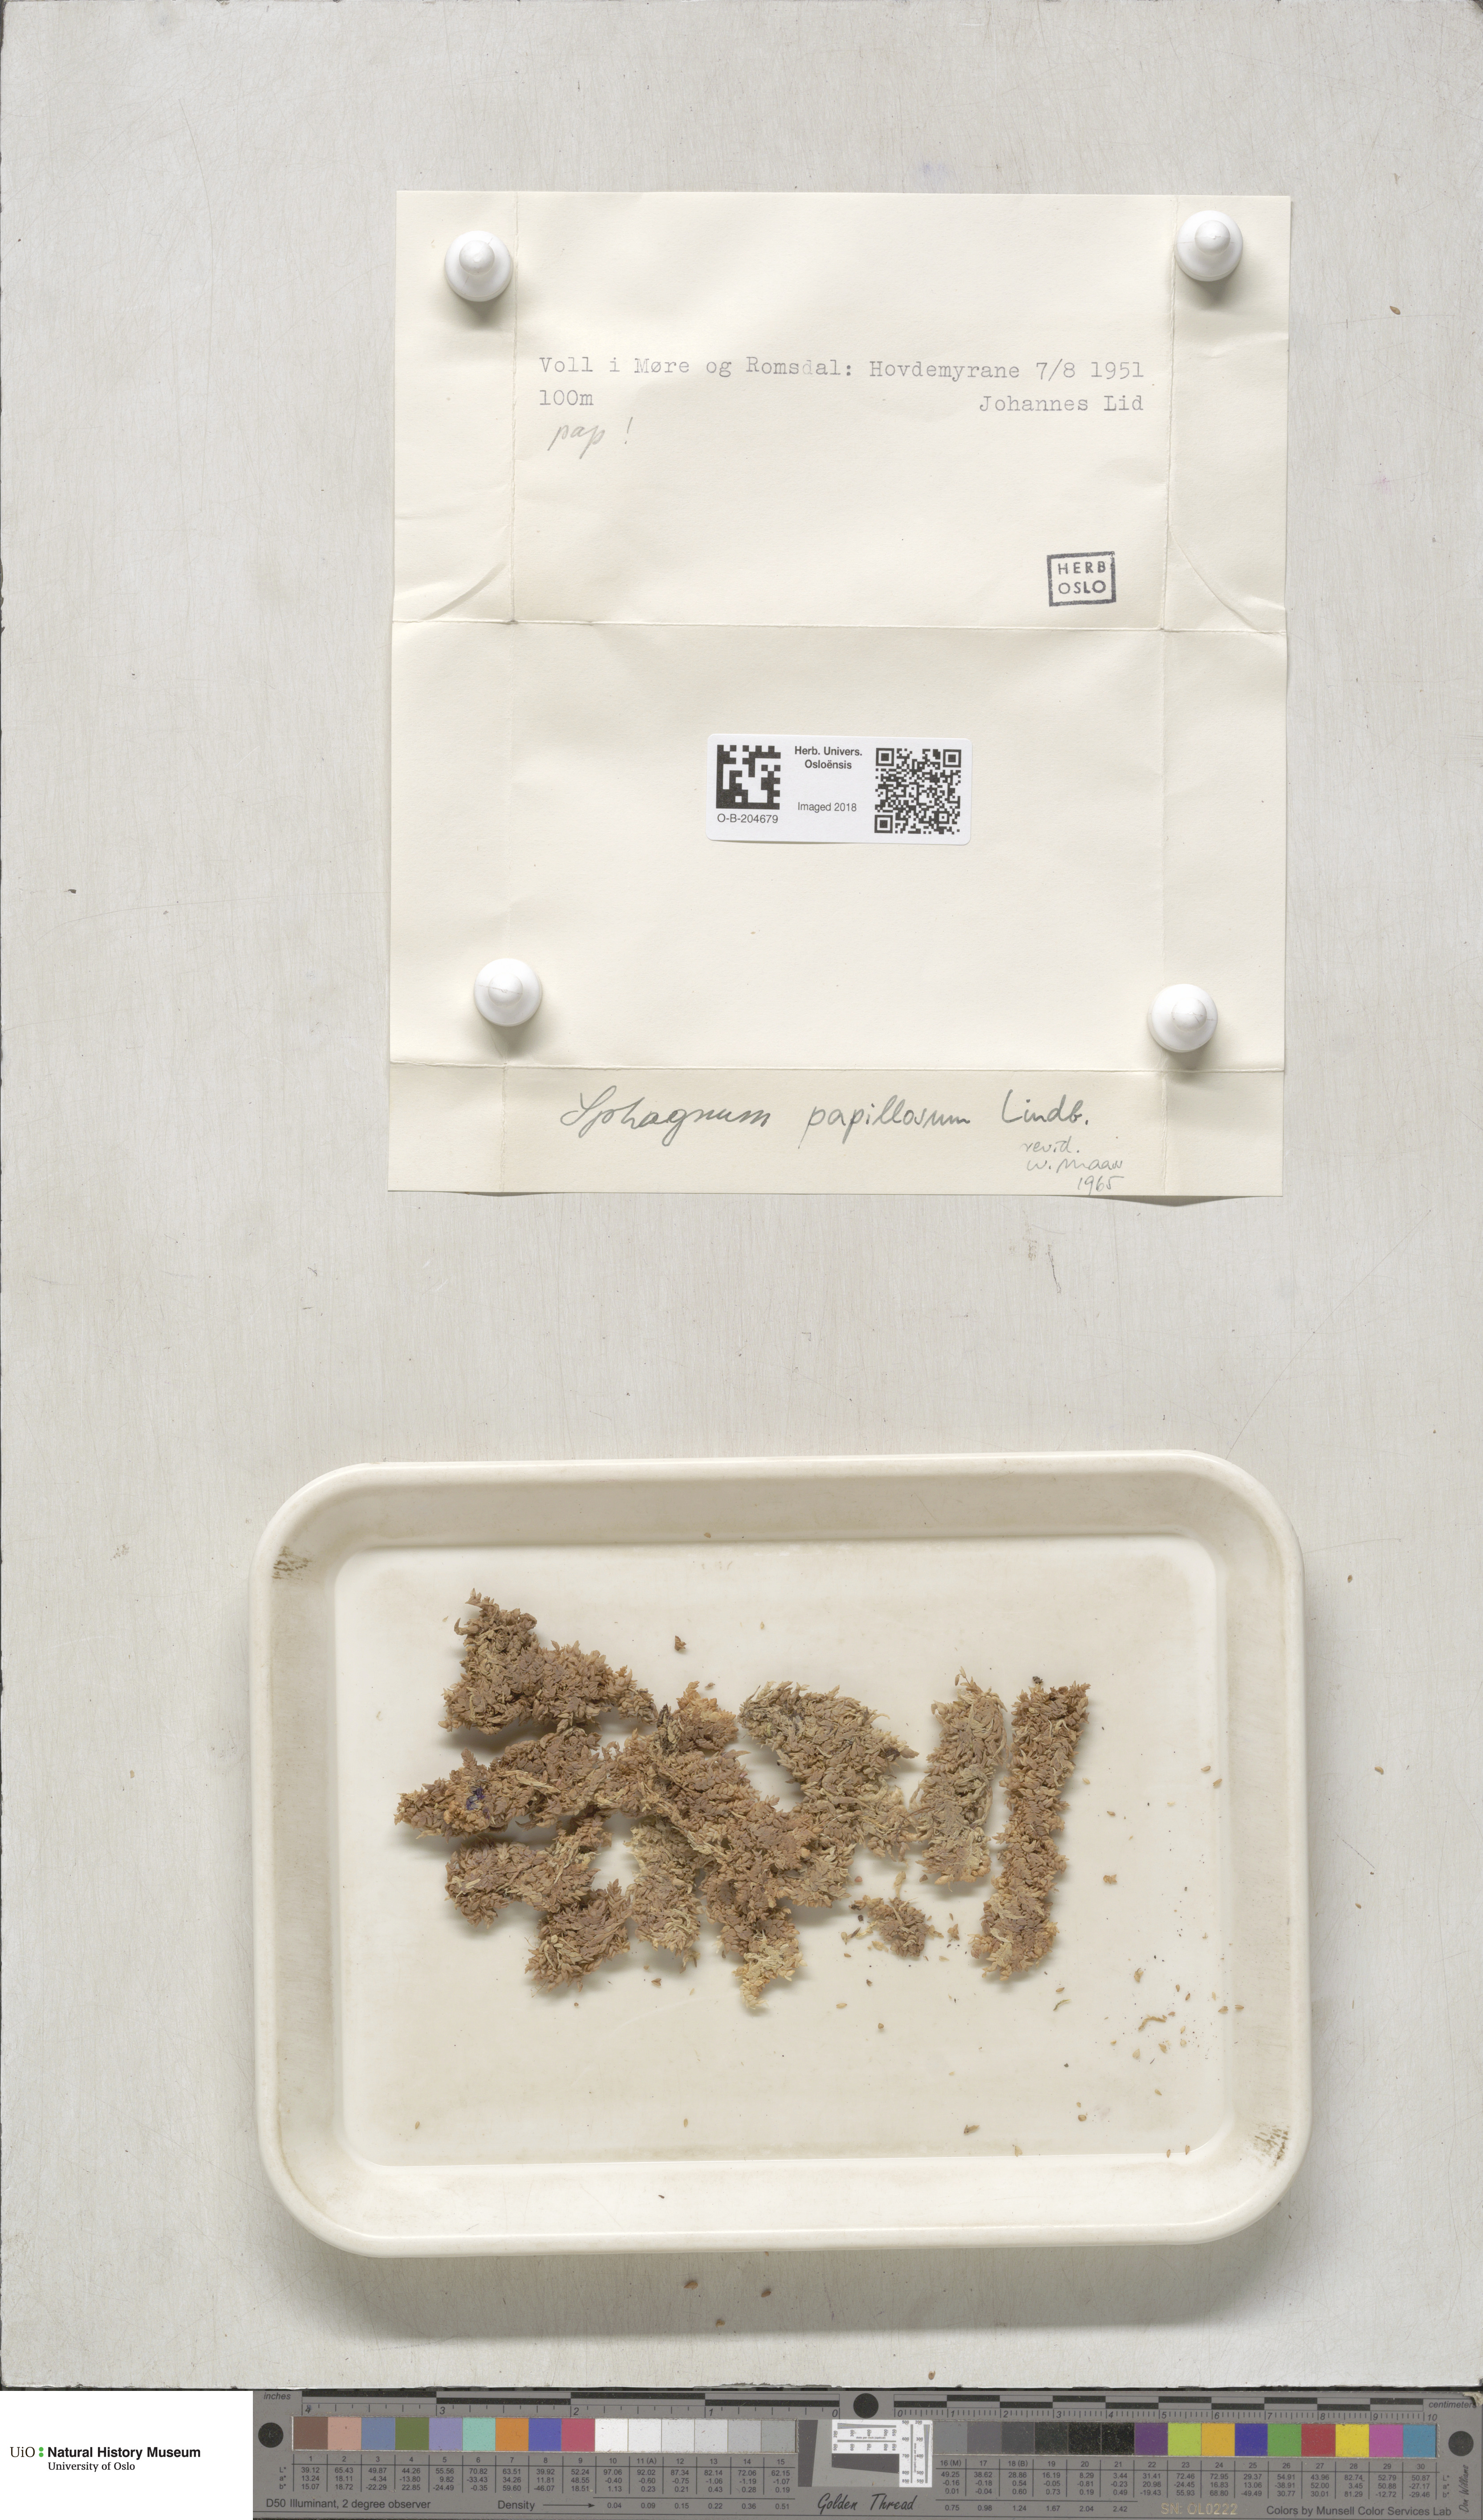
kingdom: Plantae
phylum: Bryophyta
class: Sphagnopsida
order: Sphagnales
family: Sphagnaceae
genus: Sphagnum
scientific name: Sphagnum papillosum
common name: Papillose peat moss
